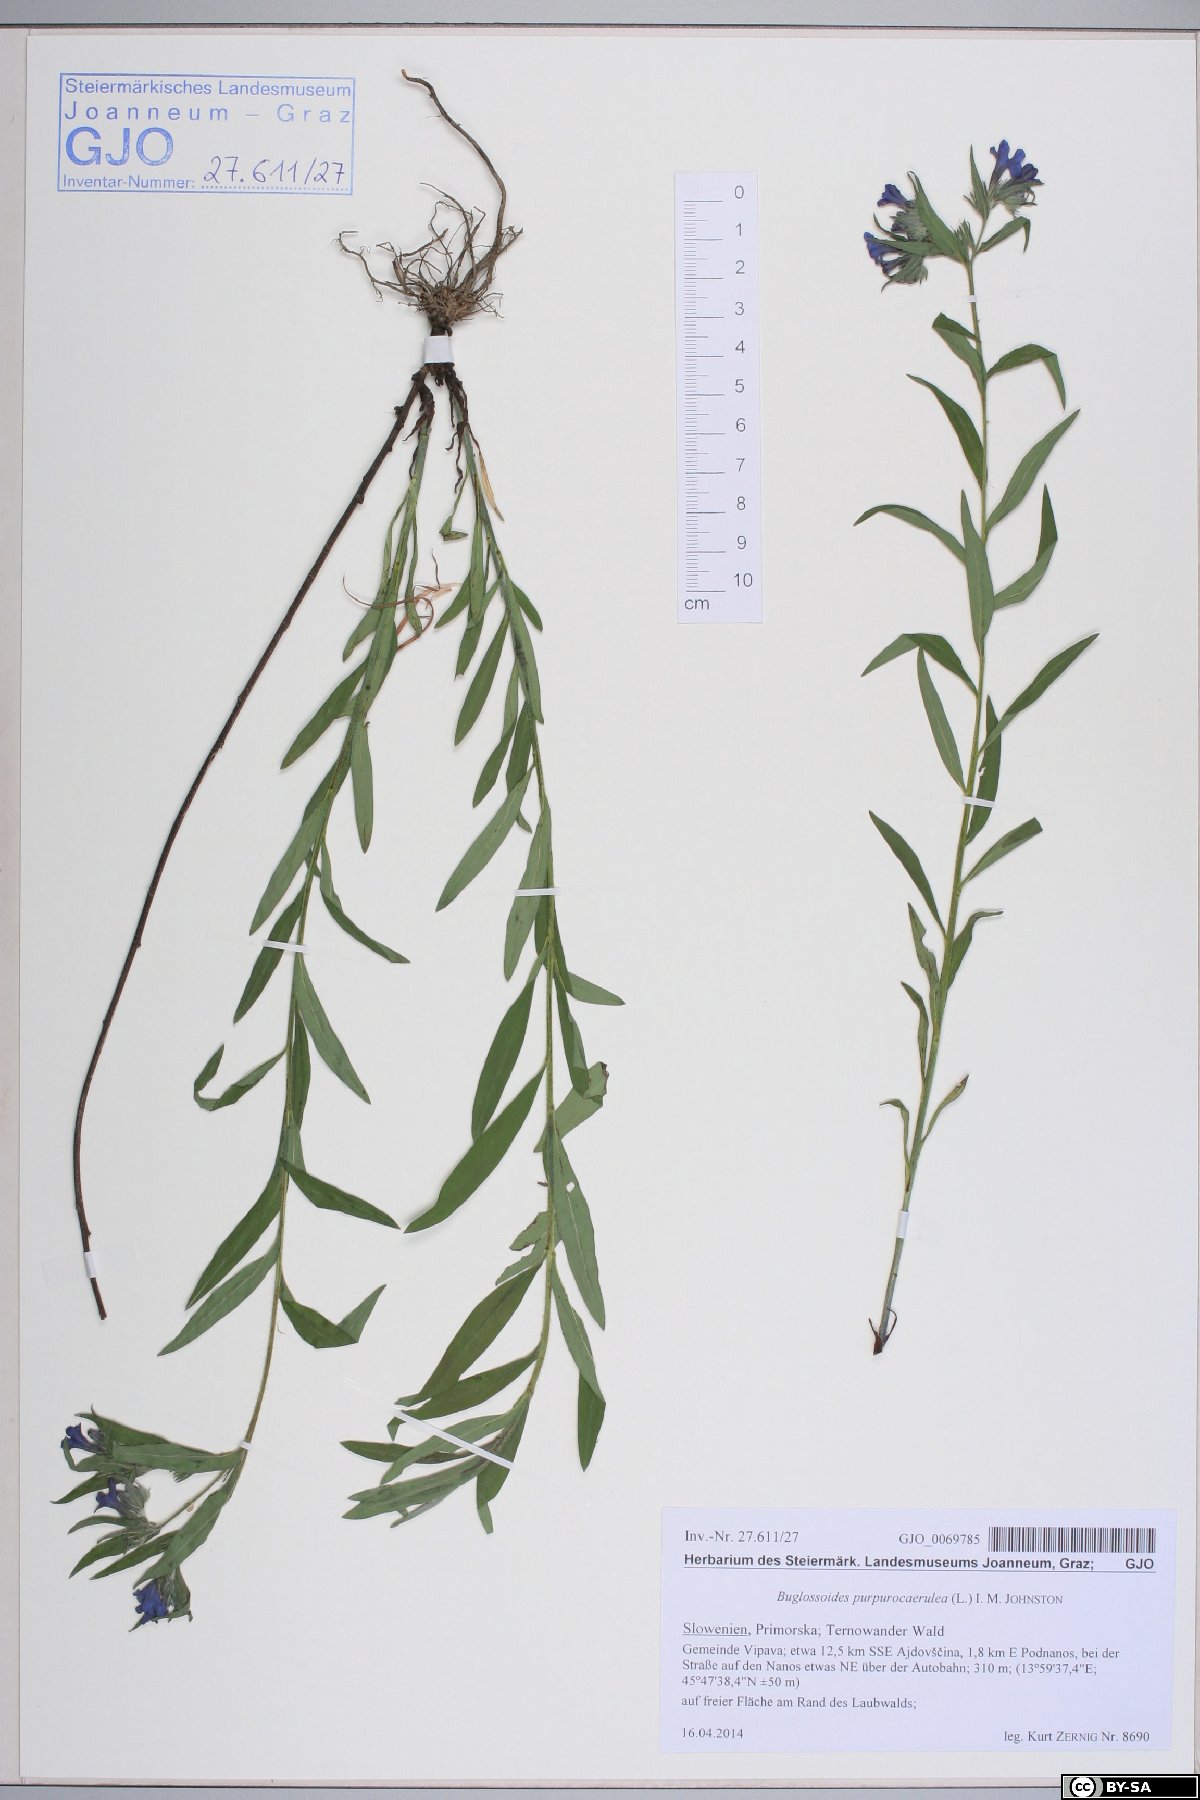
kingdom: Plantae
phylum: Tracheophyta
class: Magnoliopsida
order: Boraginales
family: Boraginaceae
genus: Aegonychon
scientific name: Aegonychon purpurocaeruleum
